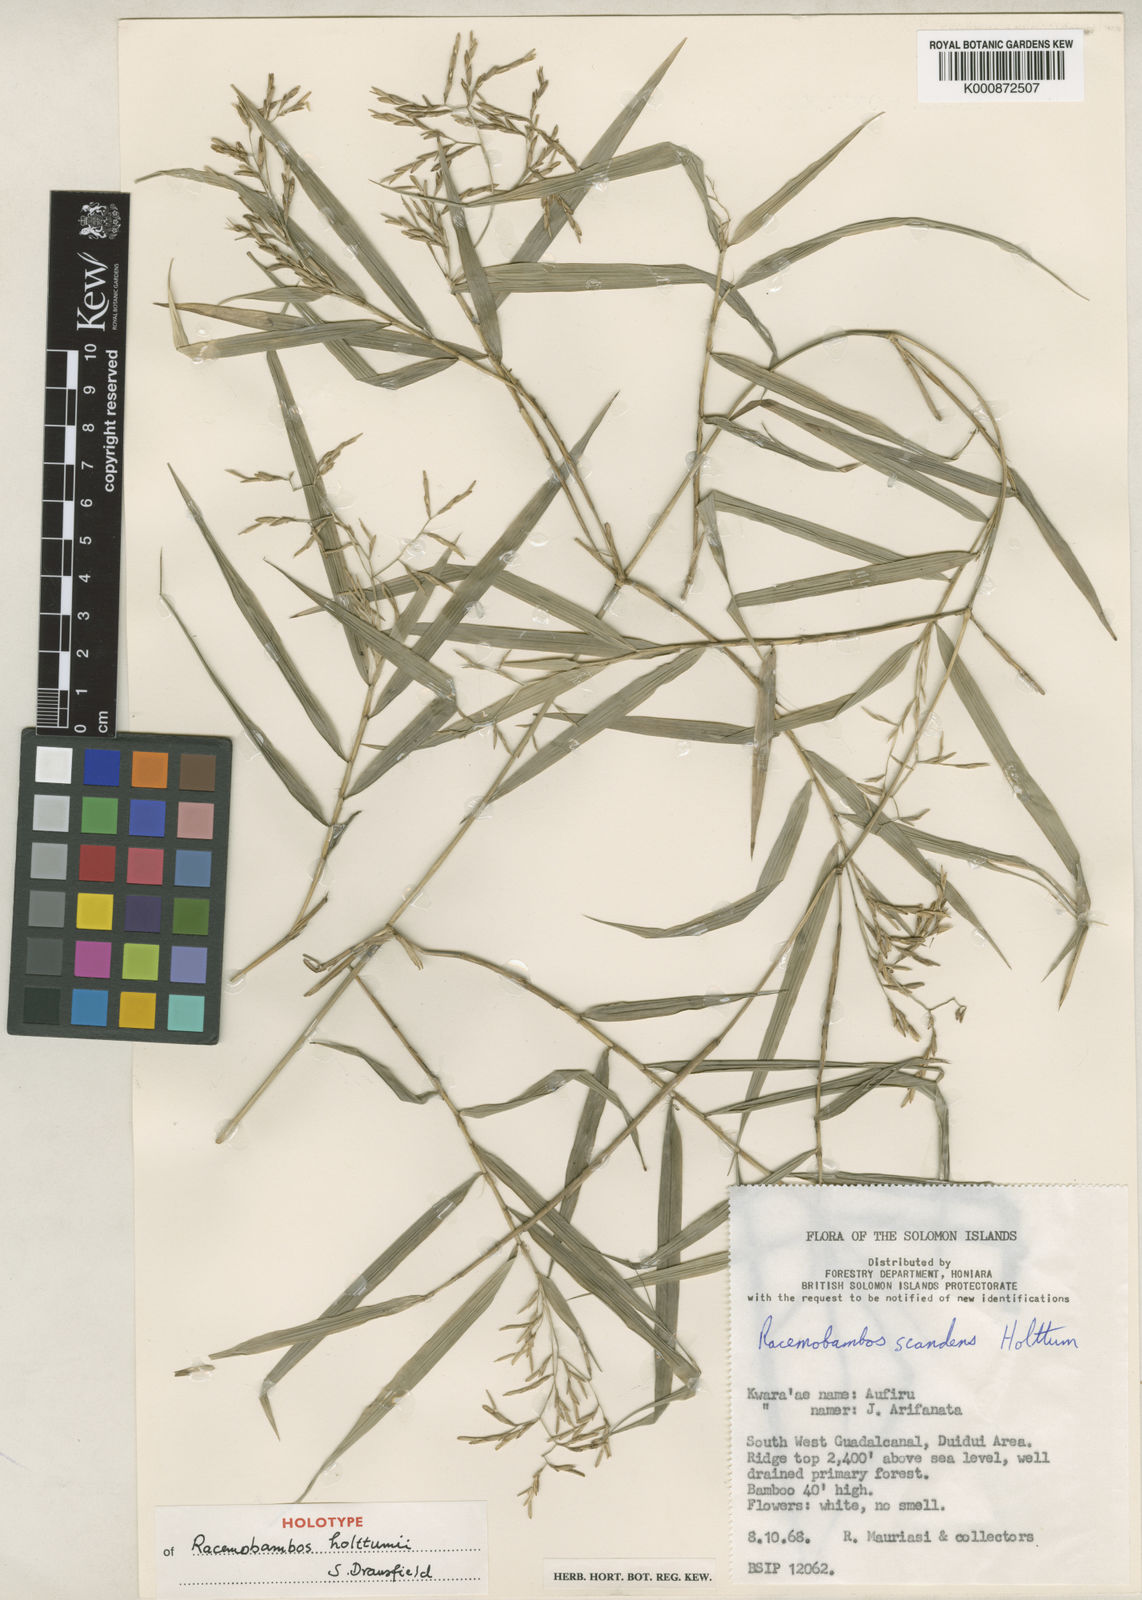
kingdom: Plantae
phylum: Tracheophyta
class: Liliopsida
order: Poales
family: Poaceae
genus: Racemobambos
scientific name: Racemobambos holttumii
